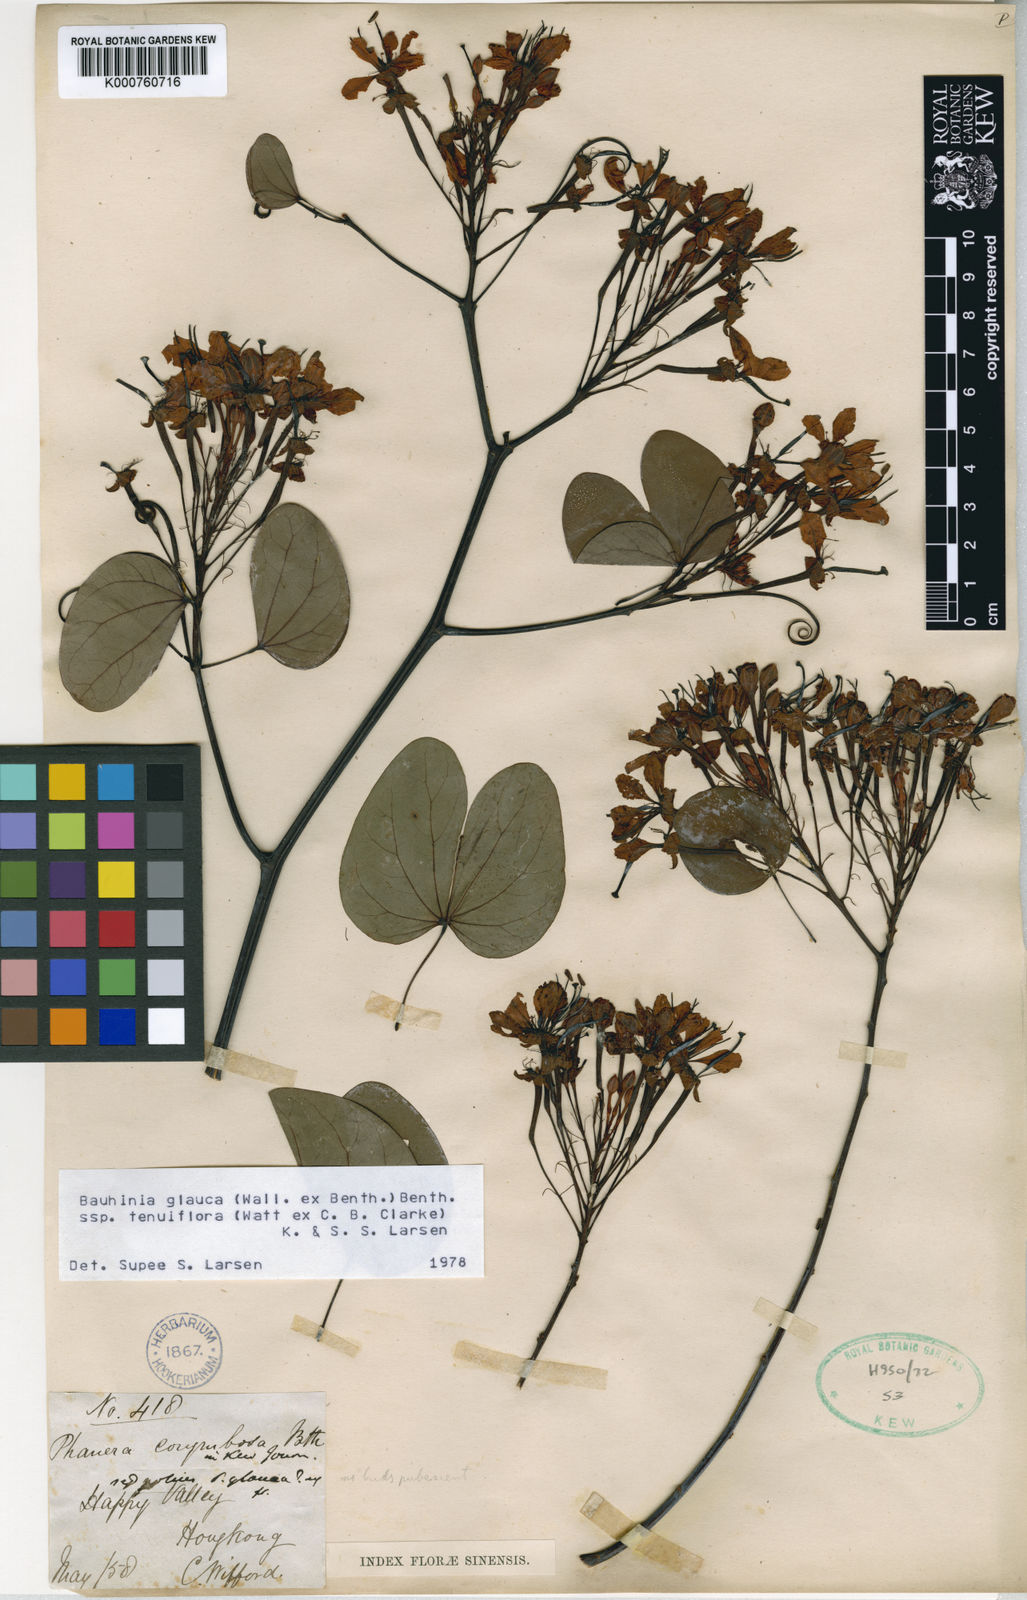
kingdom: Plantae
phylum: Tracheophyta
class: Magnoliopsida
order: Fabales
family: Fabaceae
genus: Cheniella
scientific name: Cheniella tenuiflora
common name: Bauhinia
